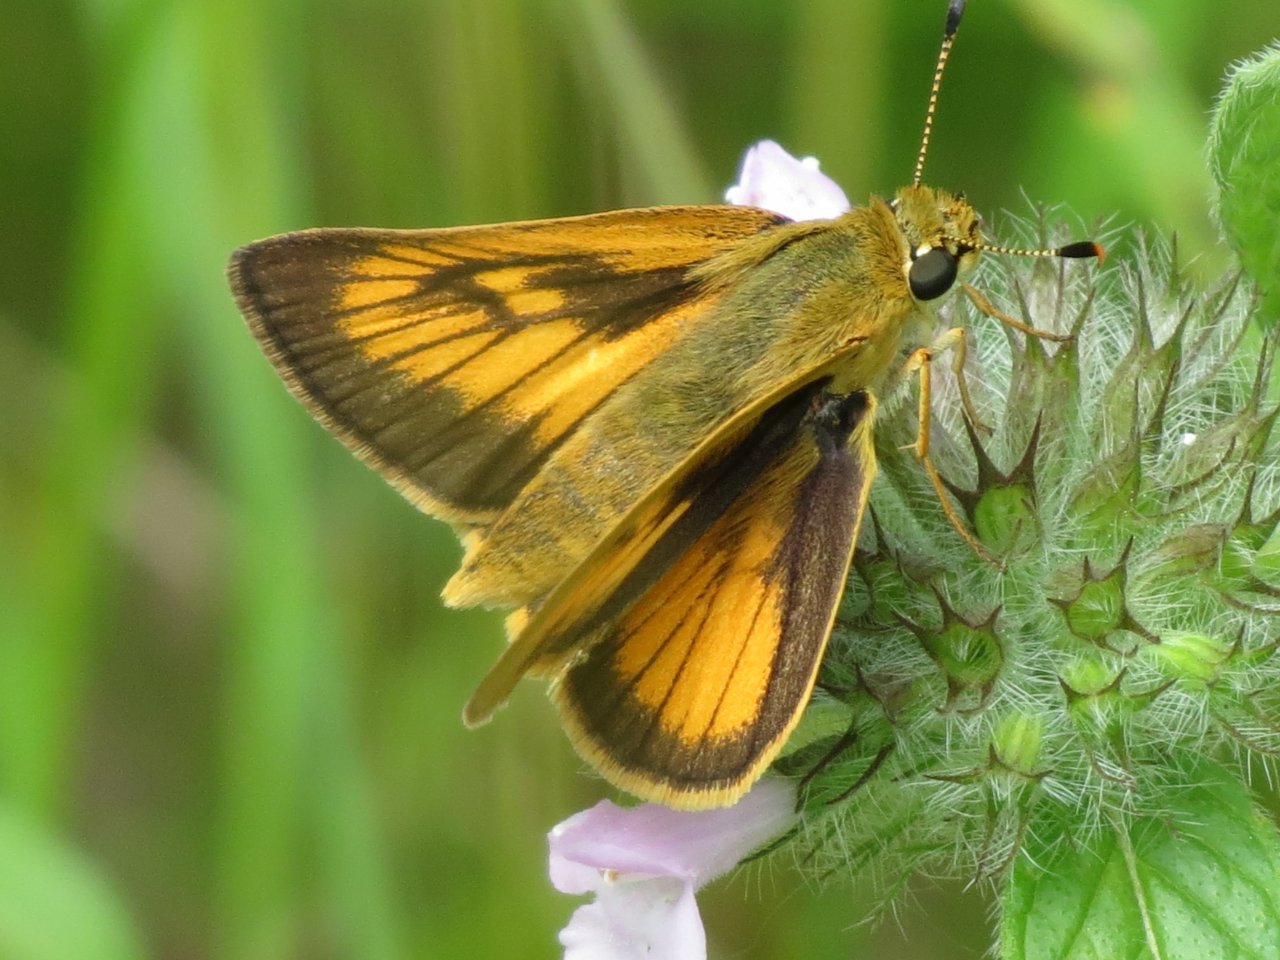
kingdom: Animalia
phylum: Arthropoda
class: Insecta
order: Lepidoptera
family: Hesperiidae
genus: Atrytone
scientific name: Atrytone delaware
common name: Delaware Skipper
